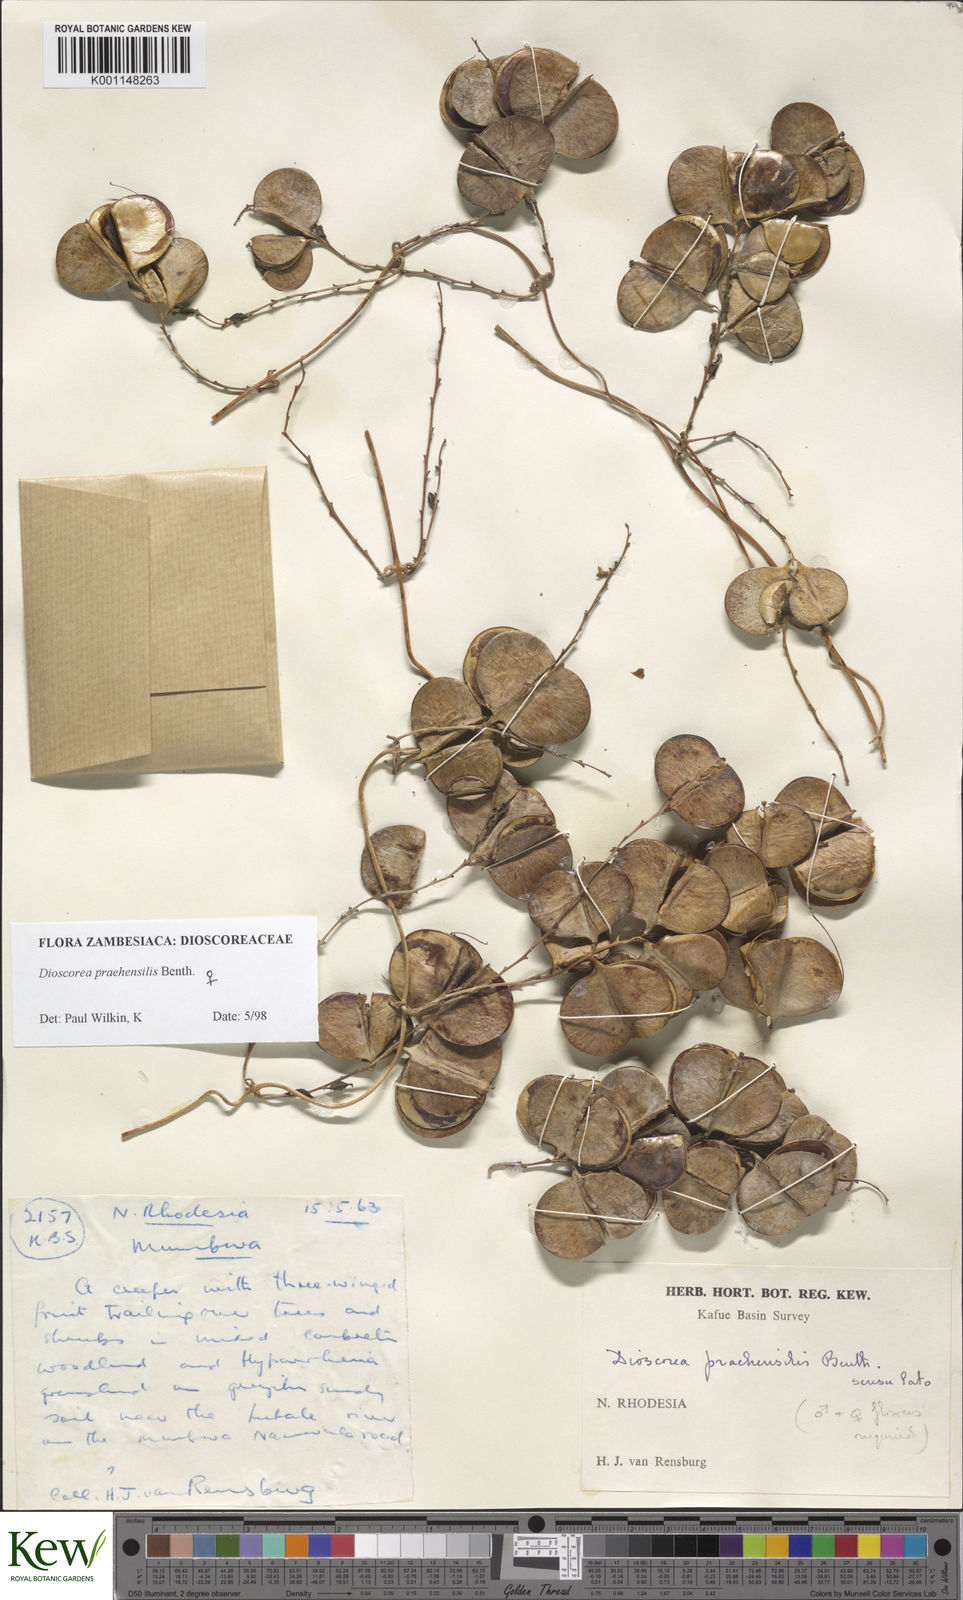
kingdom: Plantae
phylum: Tracheophyta
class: Liliopsida
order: Dioscoreales
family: Dioscoreaceae
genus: Dioscorea
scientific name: Dioscorea praehensilis
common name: Bush yam
